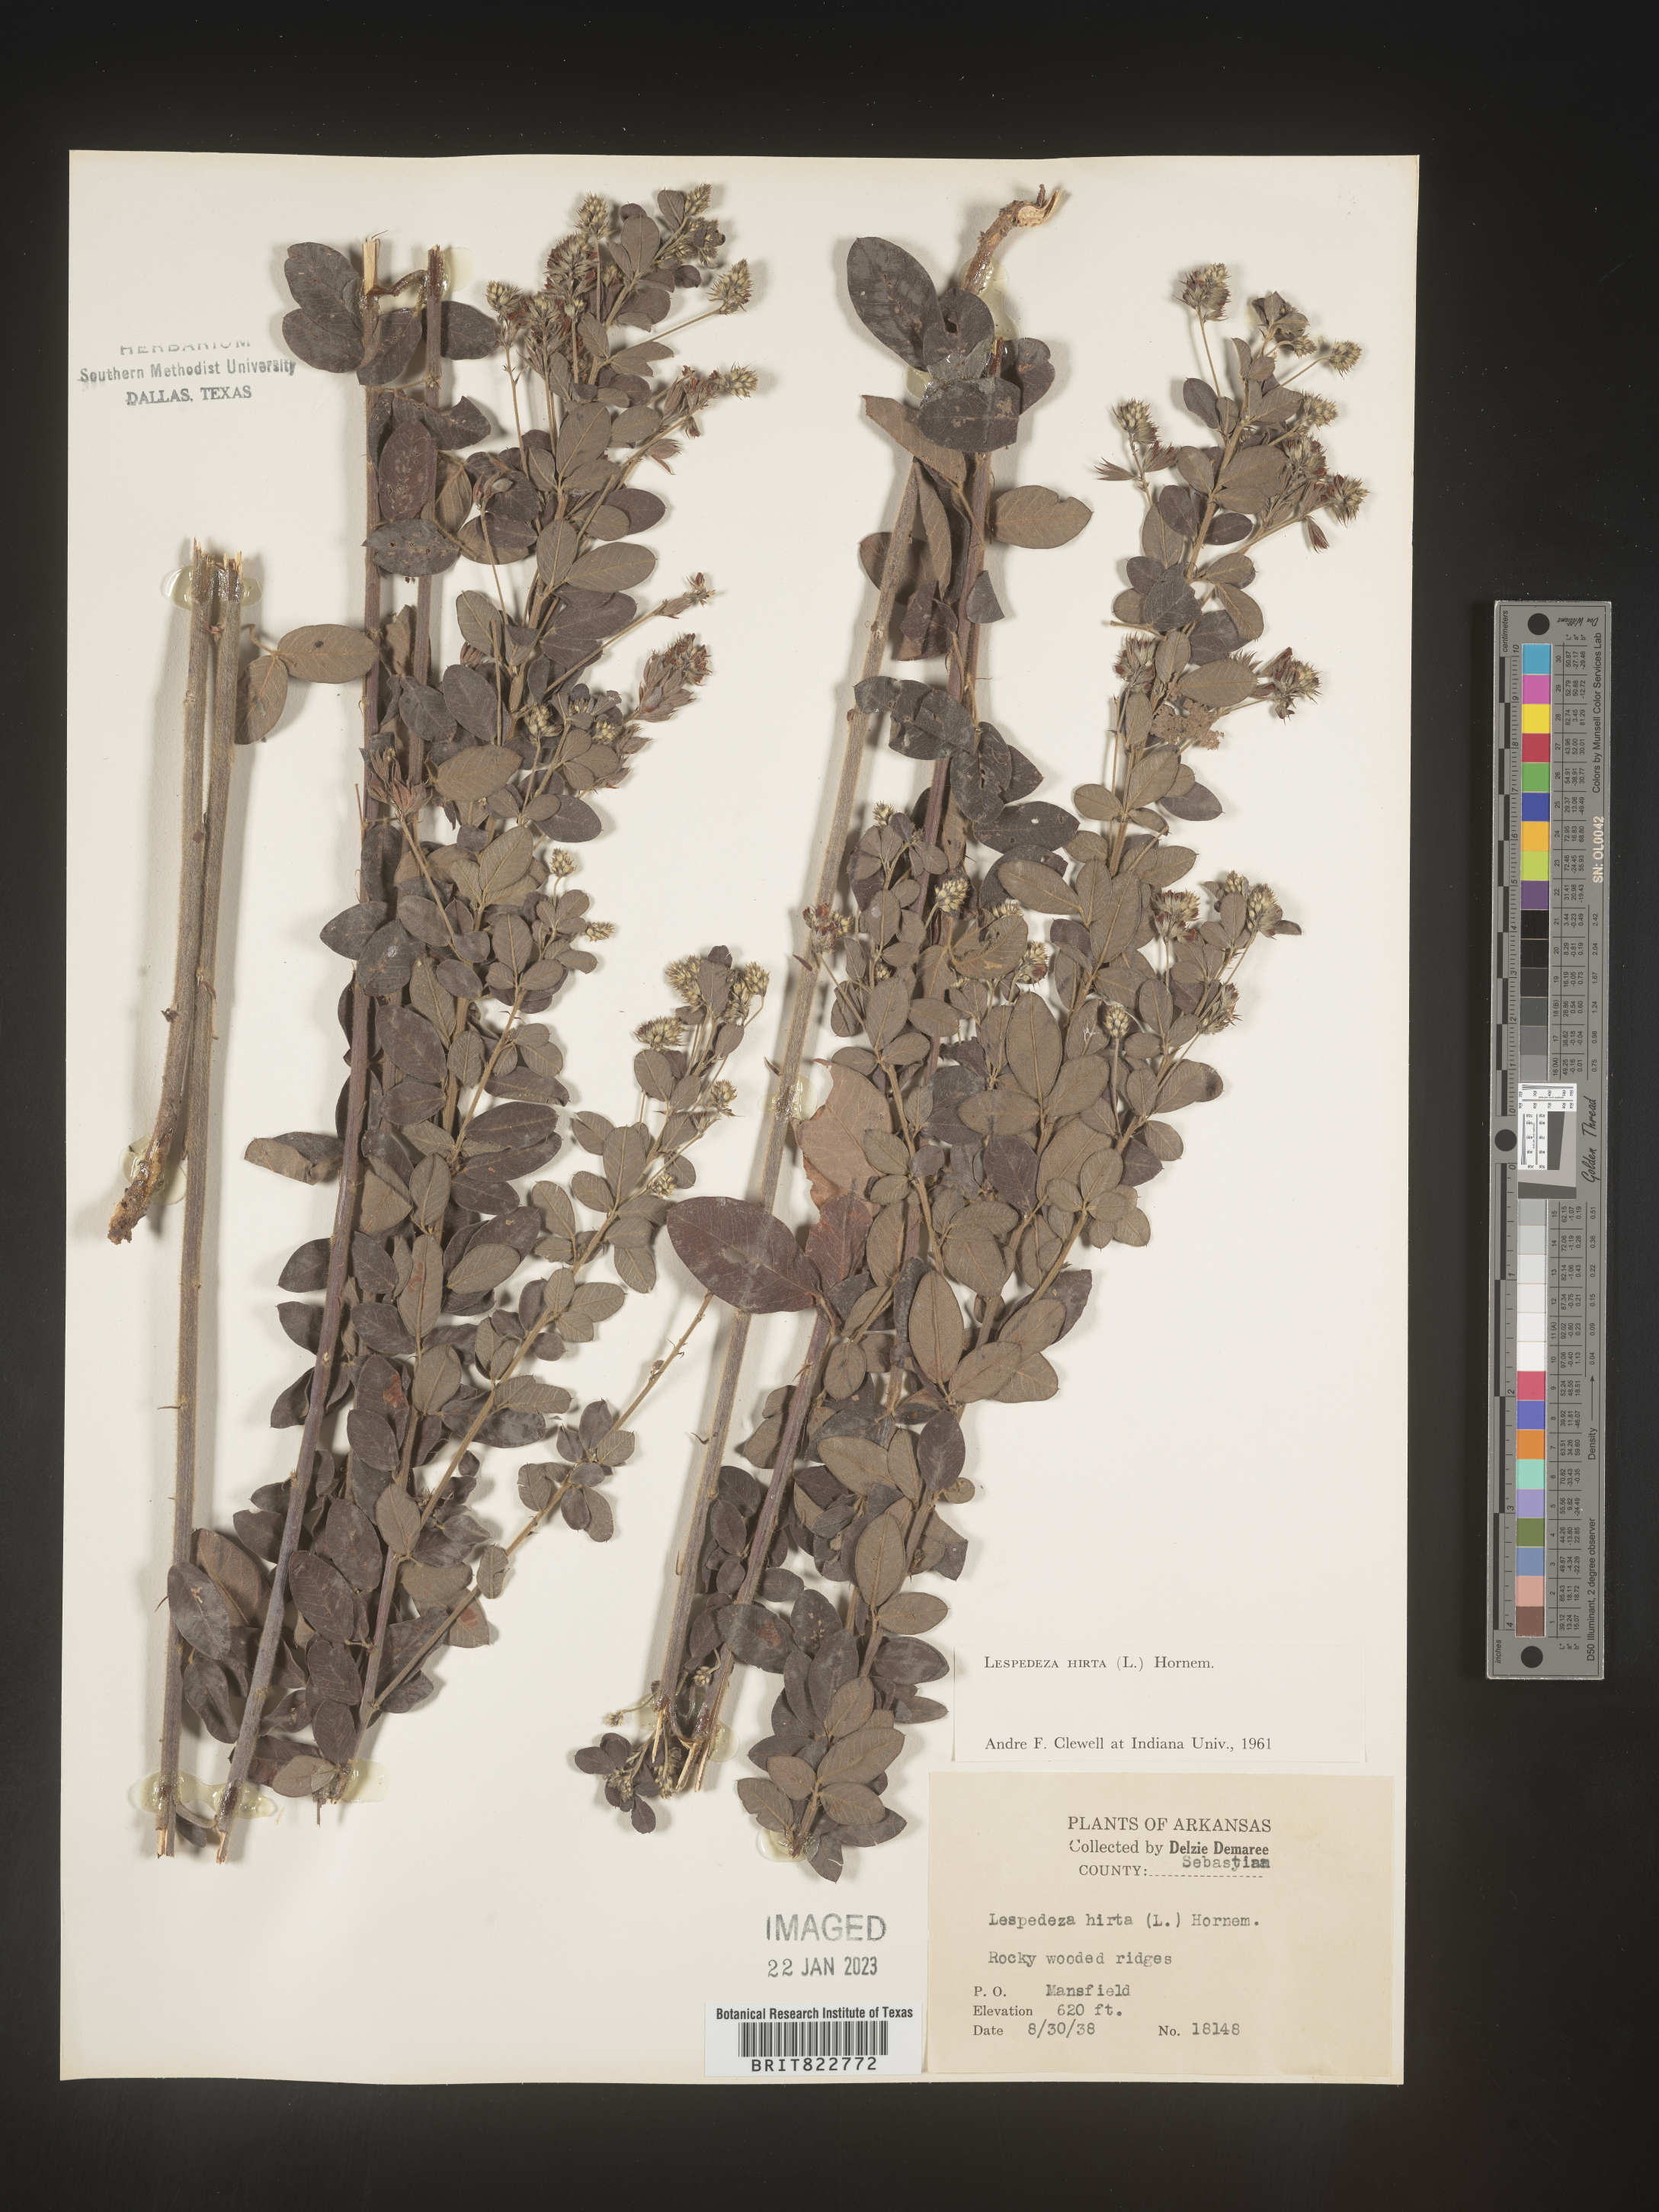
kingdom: Plantae
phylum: Tracheophyta
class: Magnoliopsida
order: Fabales
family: Fabaceae
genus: Lespedeza
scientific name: Lespedeza hirta
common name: Hairy lespedeza
